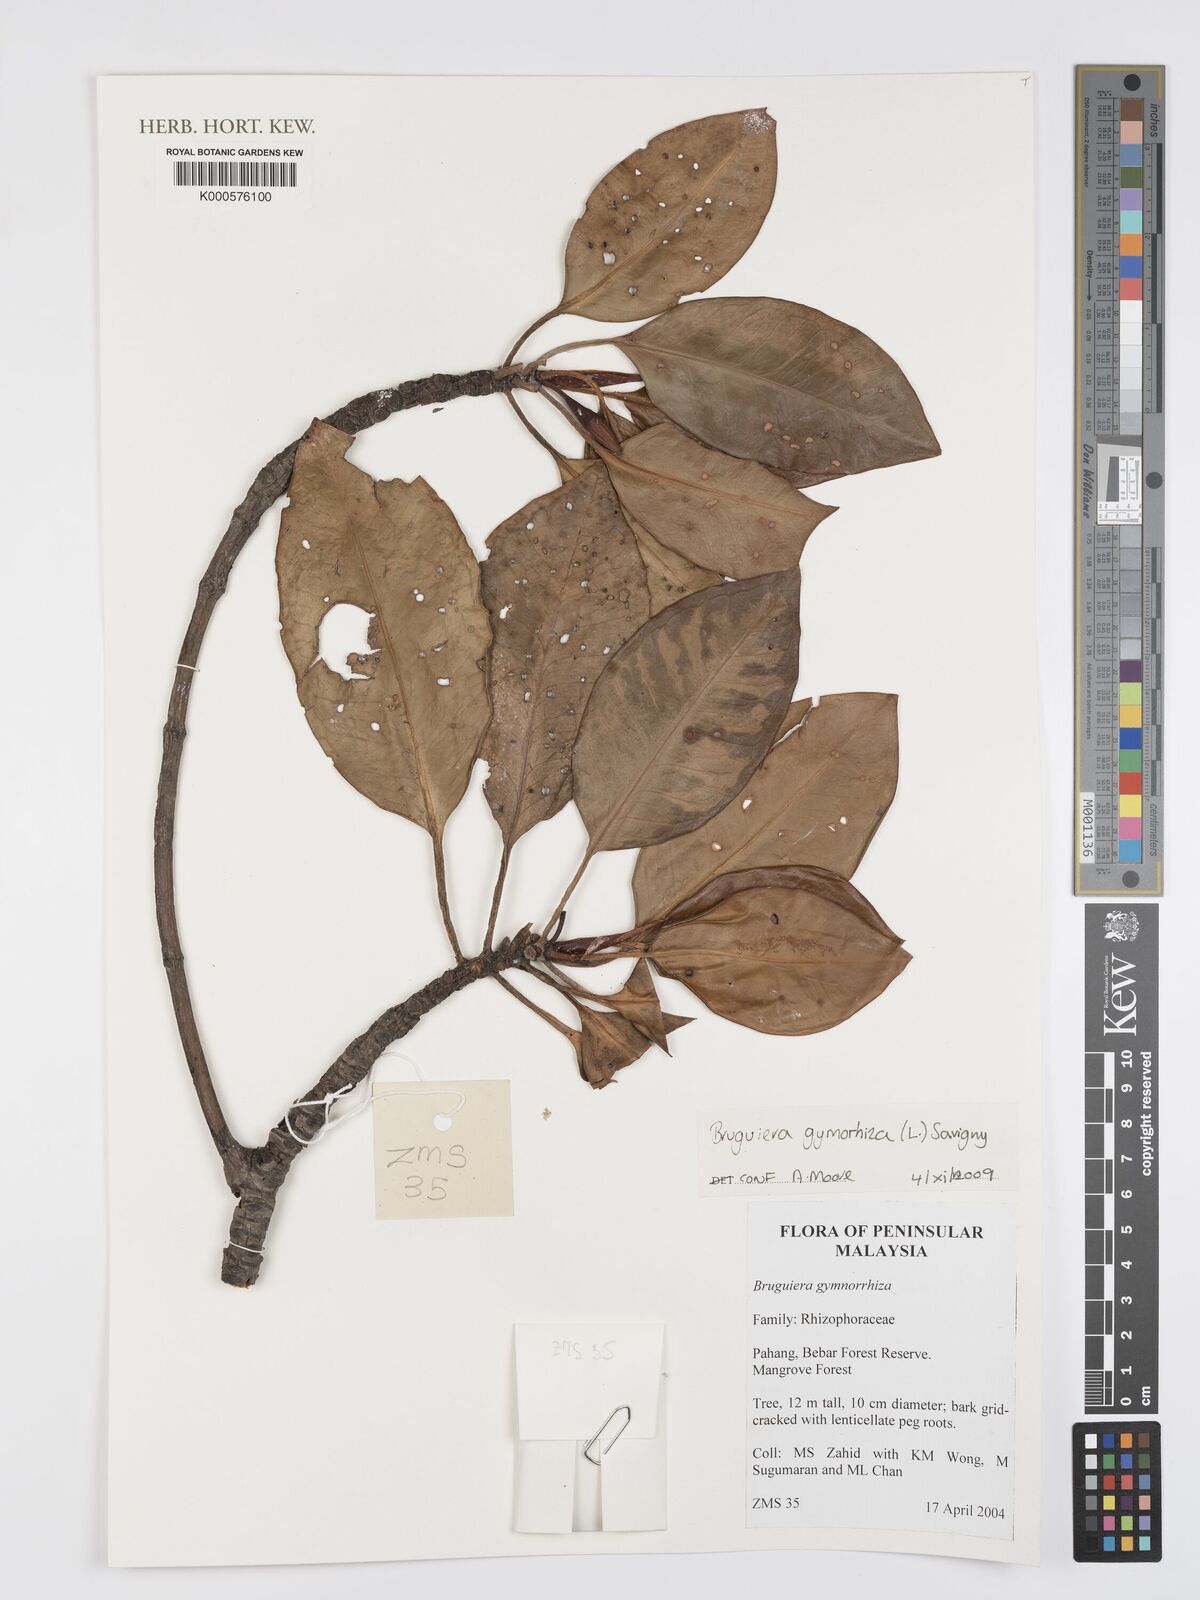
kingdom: Plantae
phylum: Tracheophyta
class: Magnoliopsida
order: Malpighiales
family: Rhizophoraceae
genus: Bruguiera
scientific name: Bruguiera
